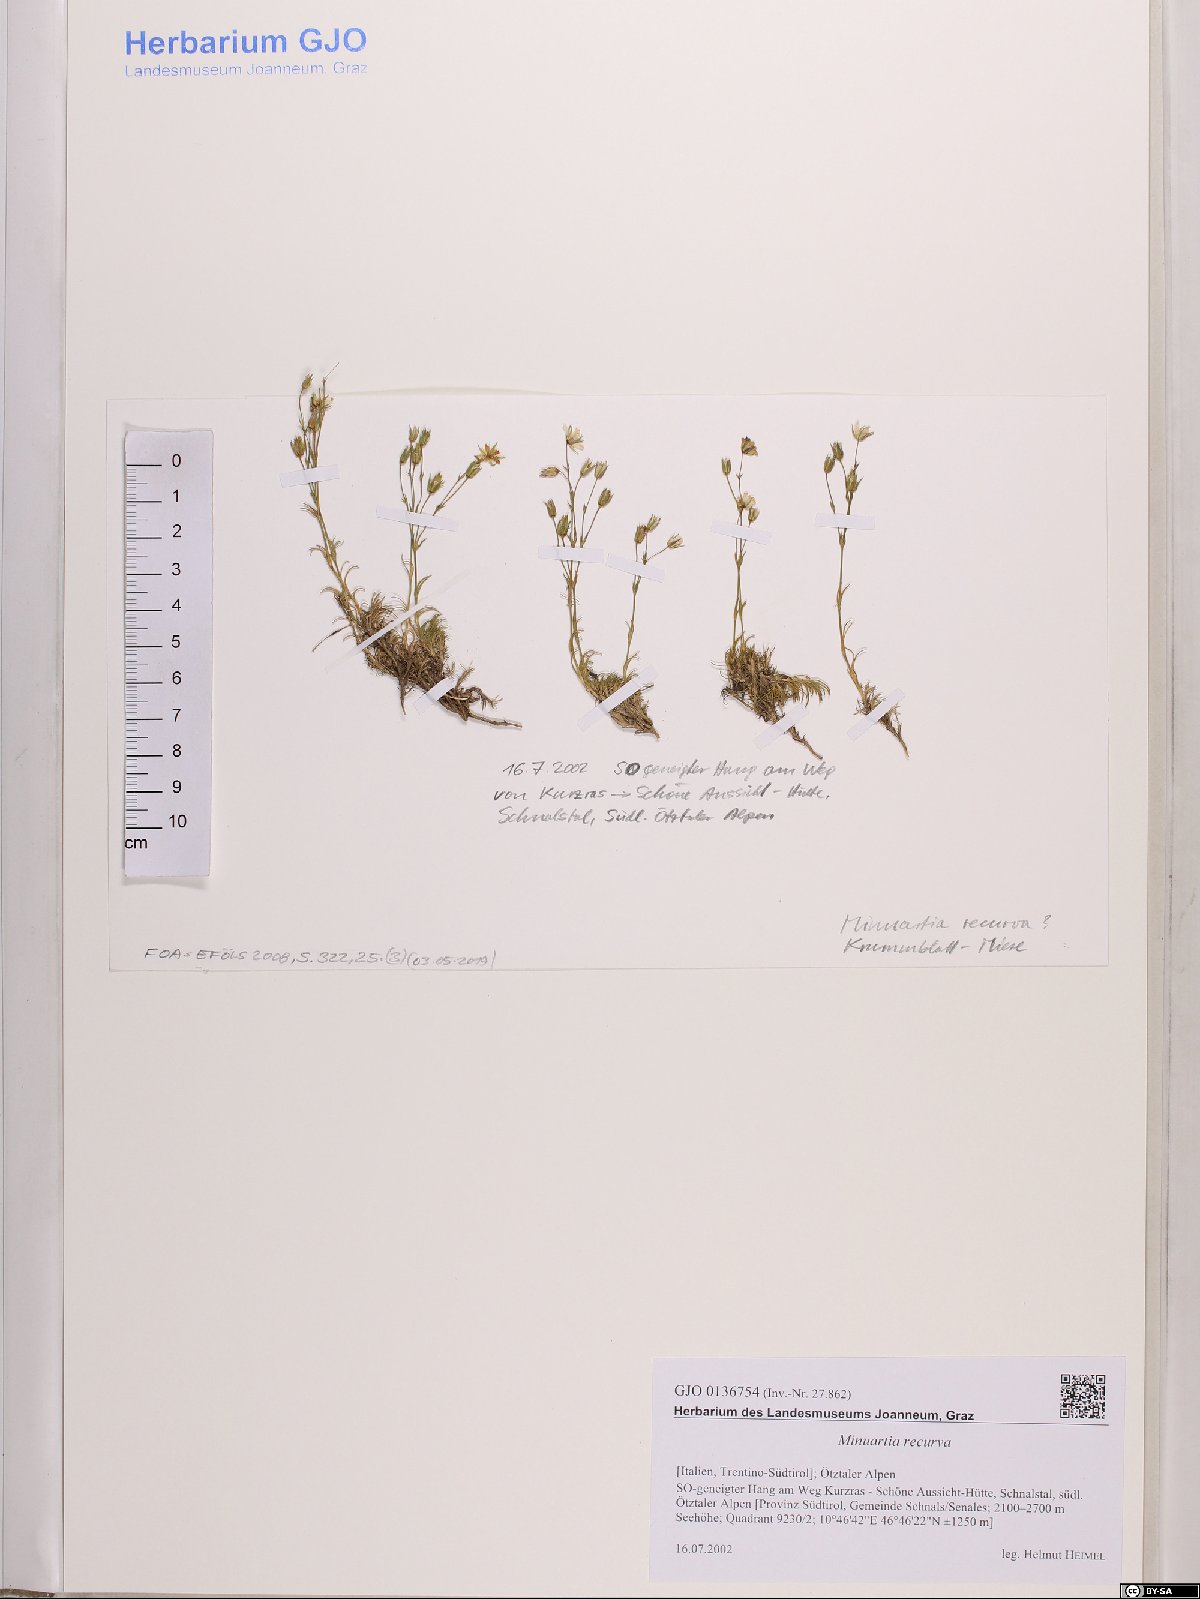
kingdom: Plantae
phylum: Tracheophyta
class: Magnoliopsida
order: Caryophyllales
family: Caryophyllaceae
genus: Minuartia
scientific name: Minuartia recurva
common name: Recurved sandwort
